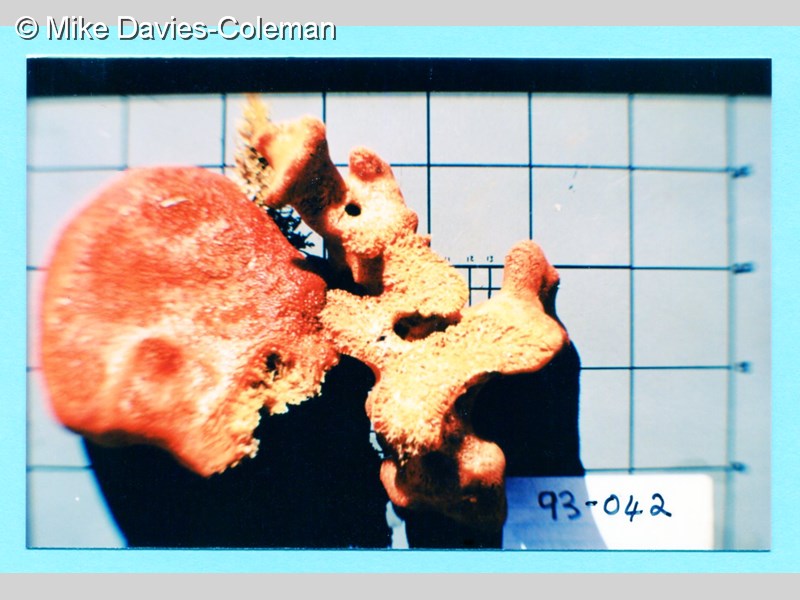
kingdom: Animalia
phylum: Porifera
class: Demospongiae
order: Poecilosclerida
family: Hymedesmiidae
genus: Phorbas
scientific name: Phorbas clathratus
